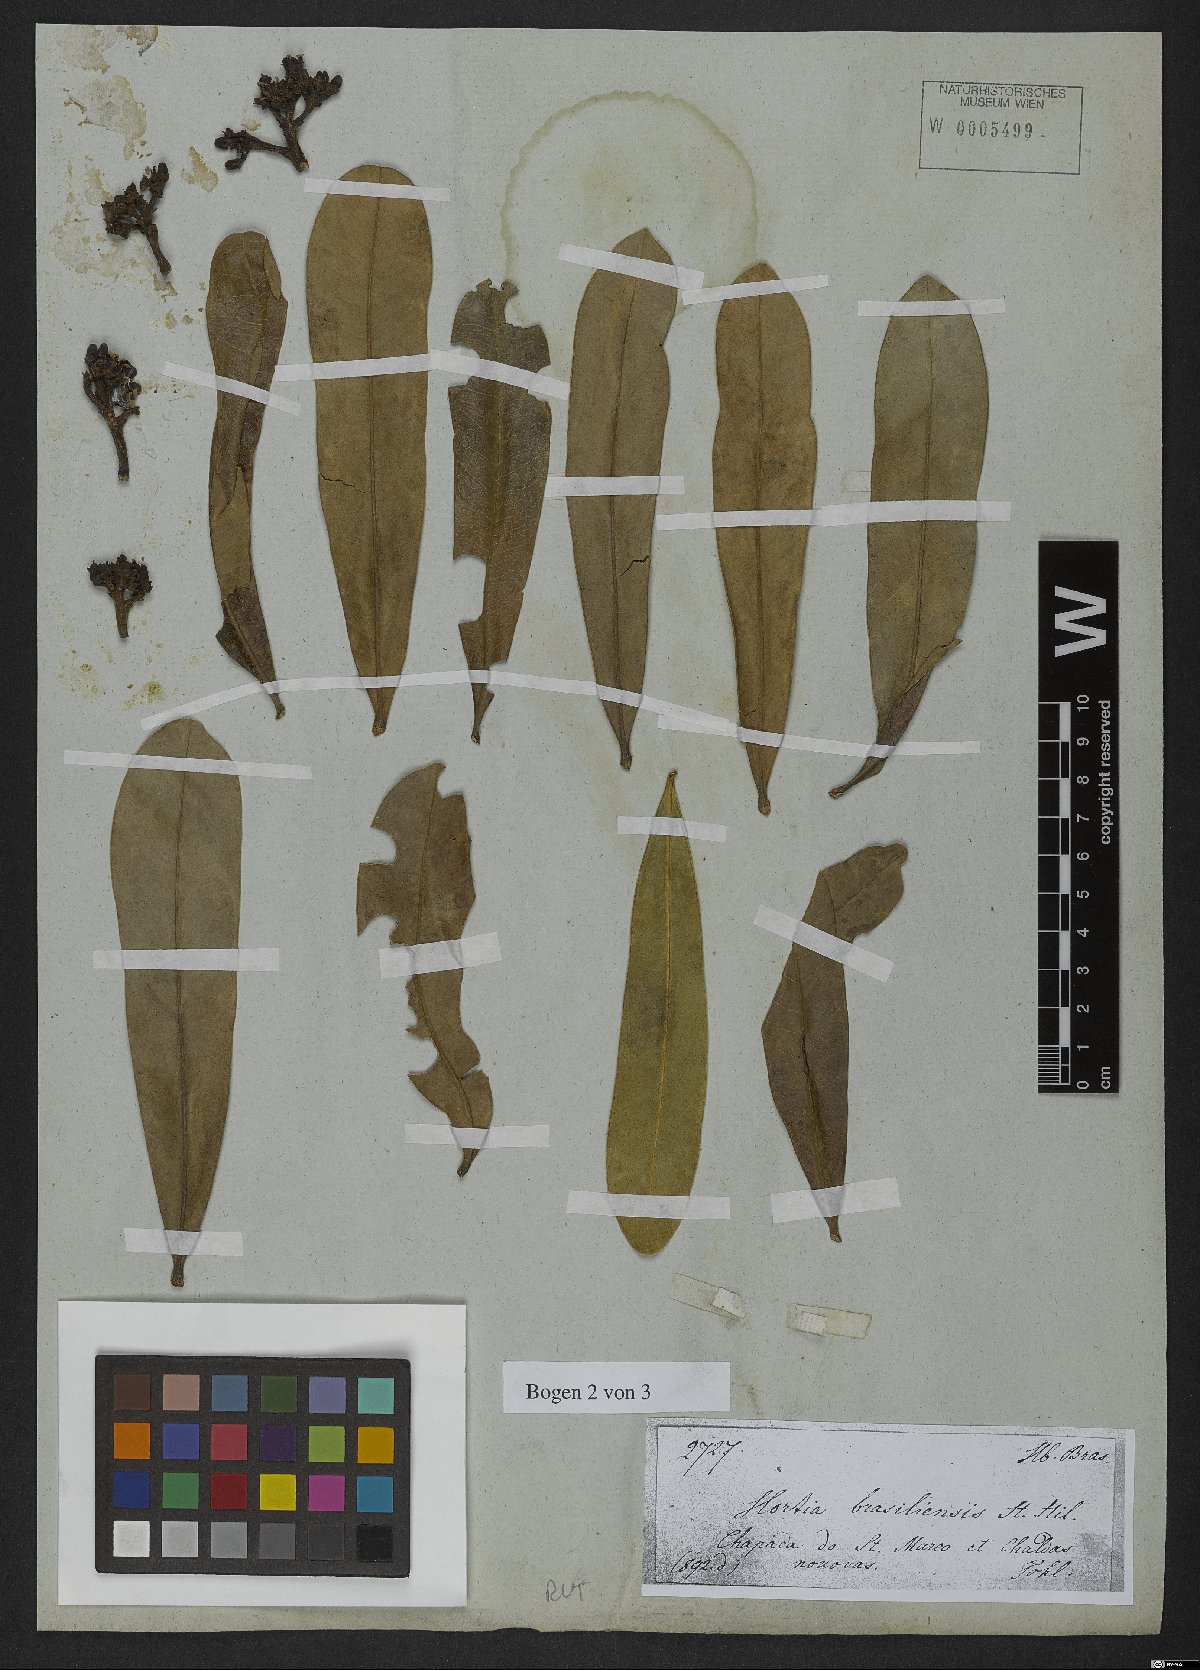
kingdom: Plantae
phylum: Tracheophyta
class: Magnoliopsida
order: Sapindales
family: Rutaceae
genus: Hortia
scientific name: Hortia brasiliana
